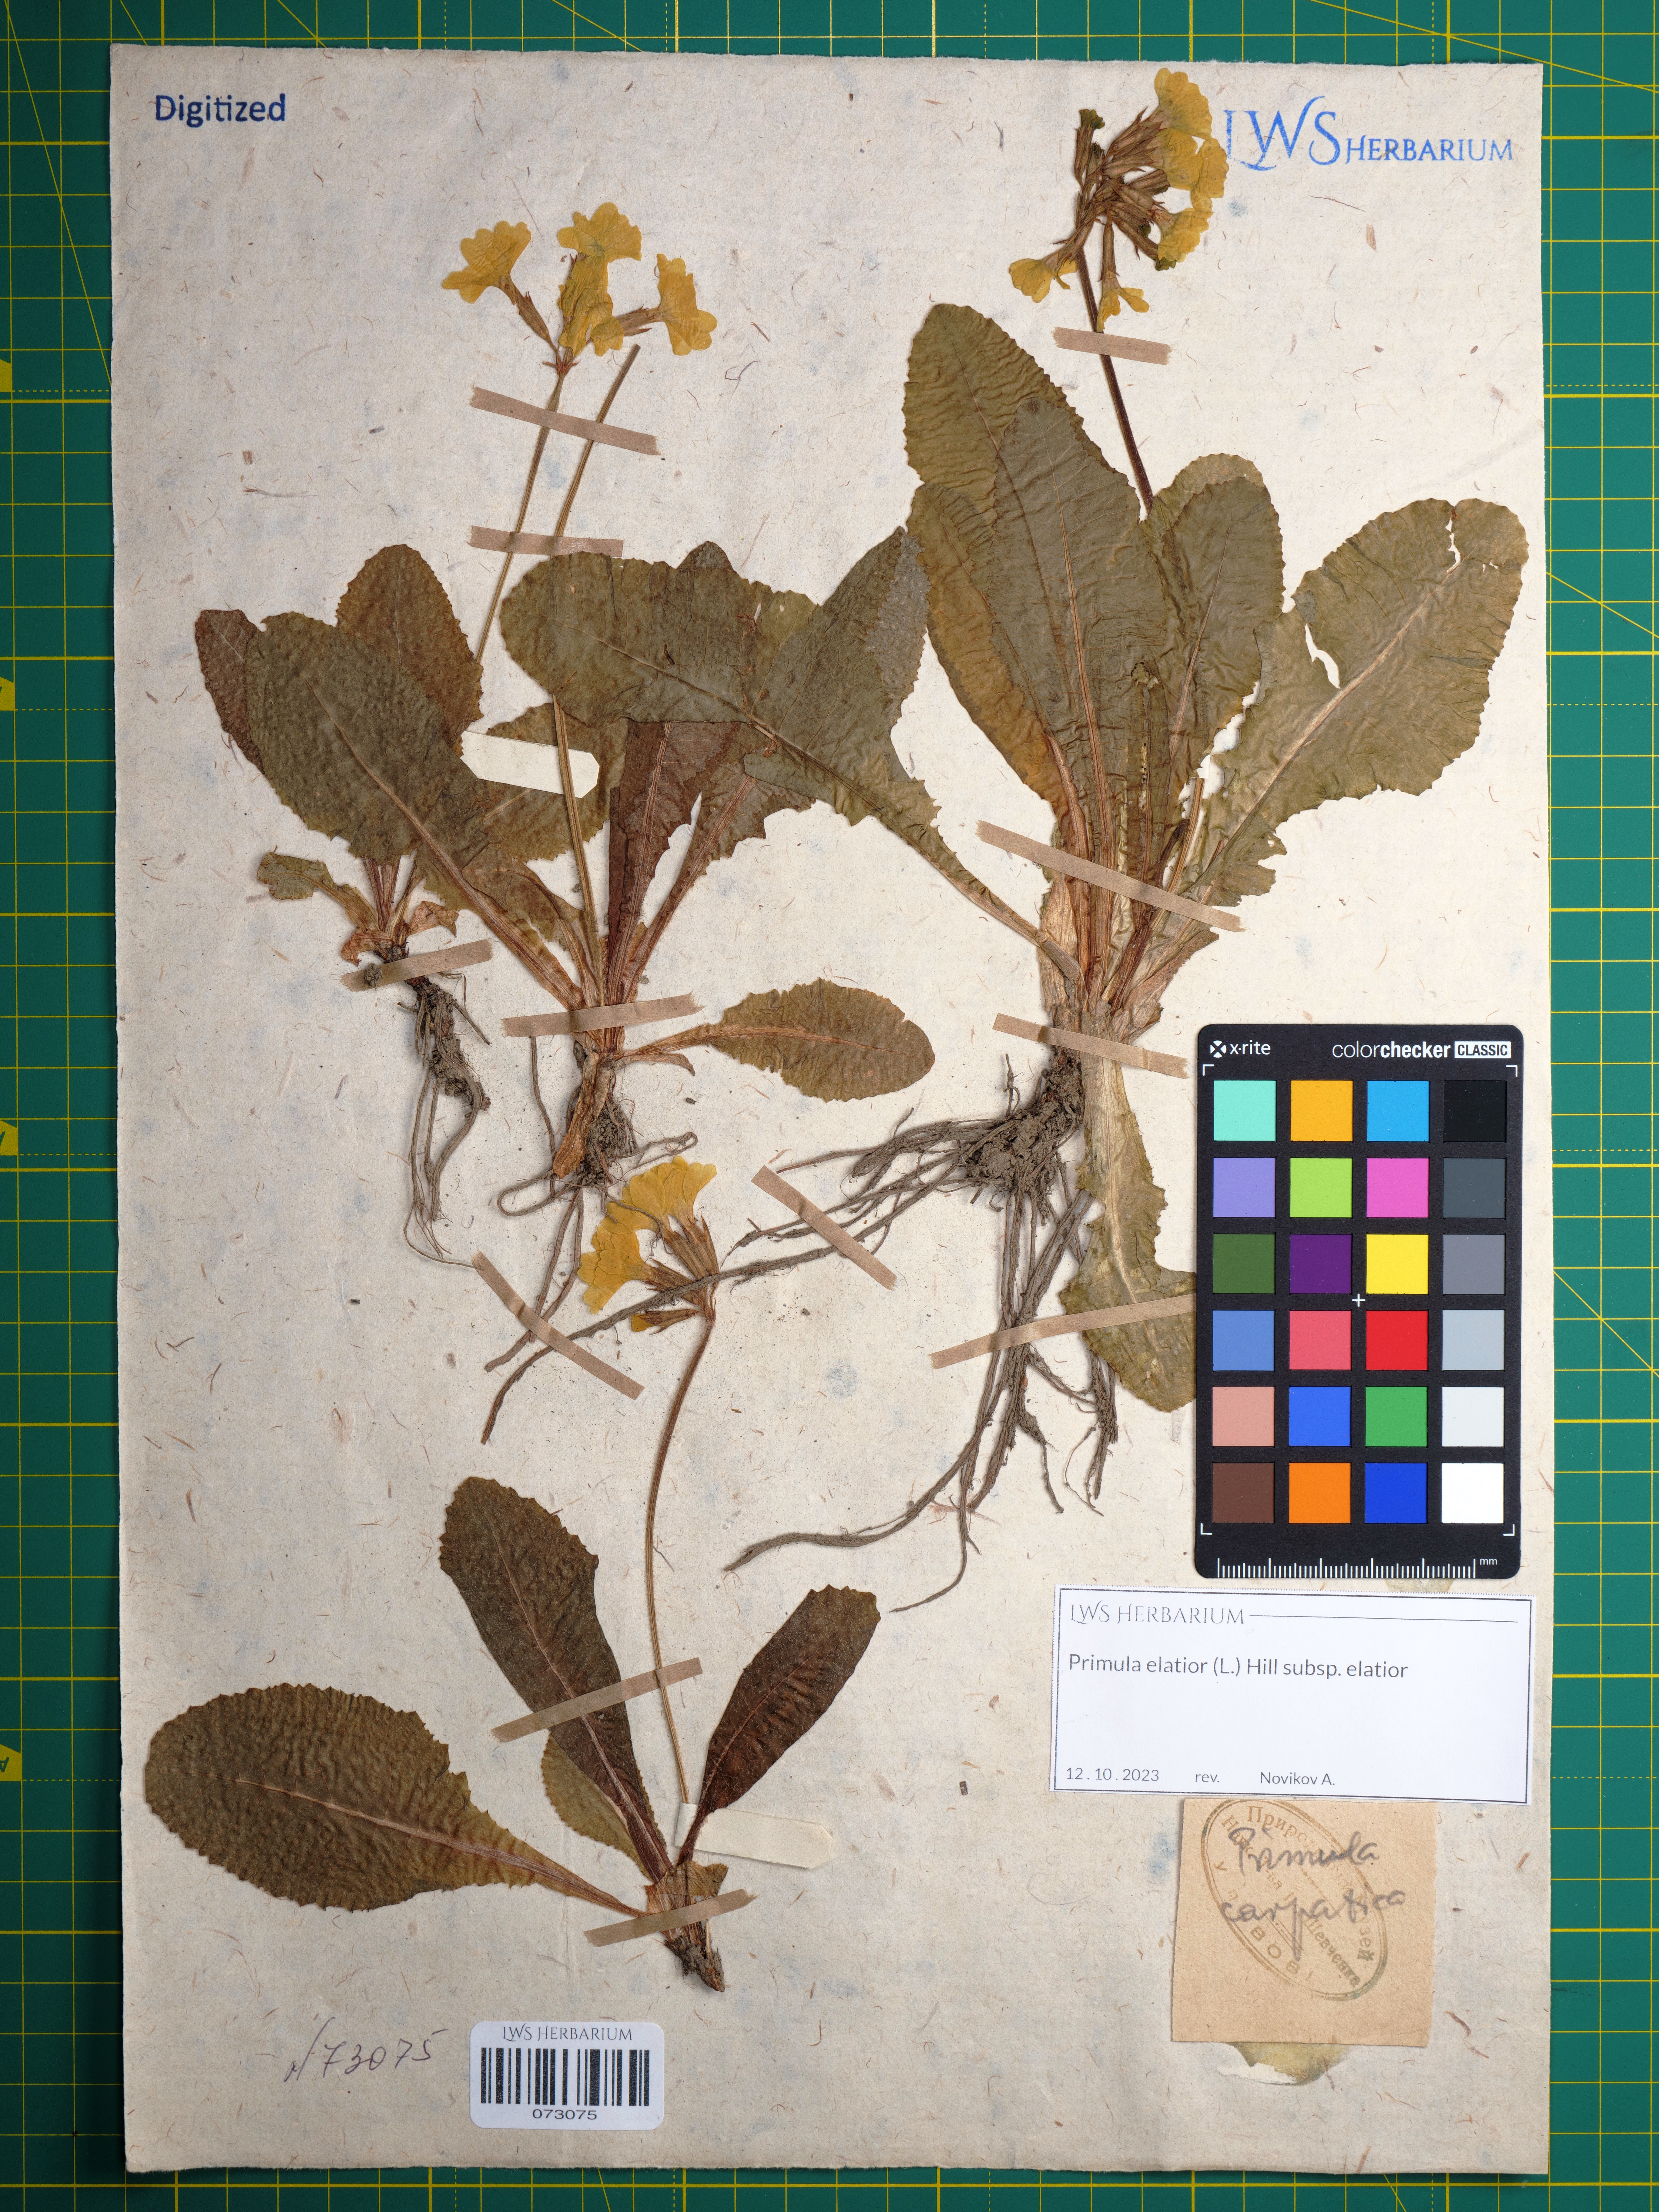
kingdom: Plantae
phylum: Tracheophyta
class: Magnoliopsida
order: Ericales
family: Primulaceae
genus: Primula
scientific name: Primula elatior
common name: Oxlip
